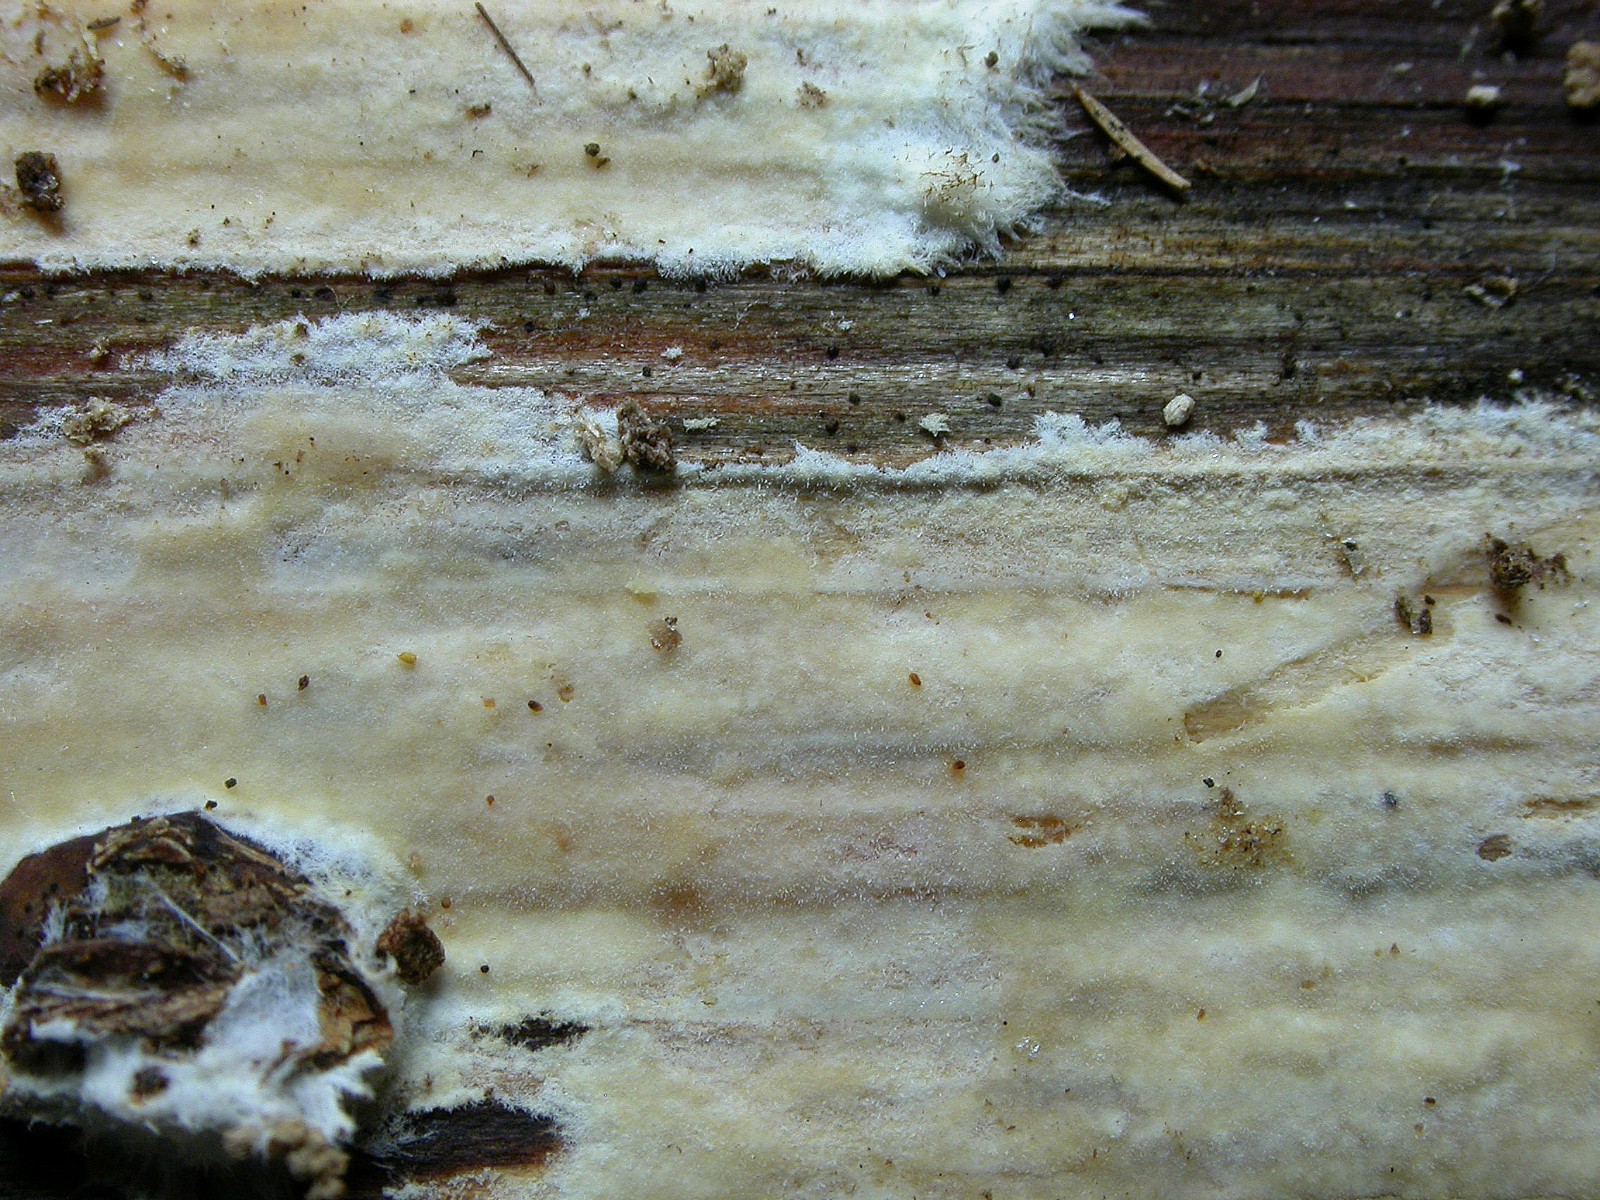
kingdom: Fungi
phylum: Basidiomycota
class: Agaricomycetes
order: Polyporales
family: Phanerochaetaceae
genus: Phanerochaete
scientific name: Phanerochaete velutina
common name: dunet randtråd
